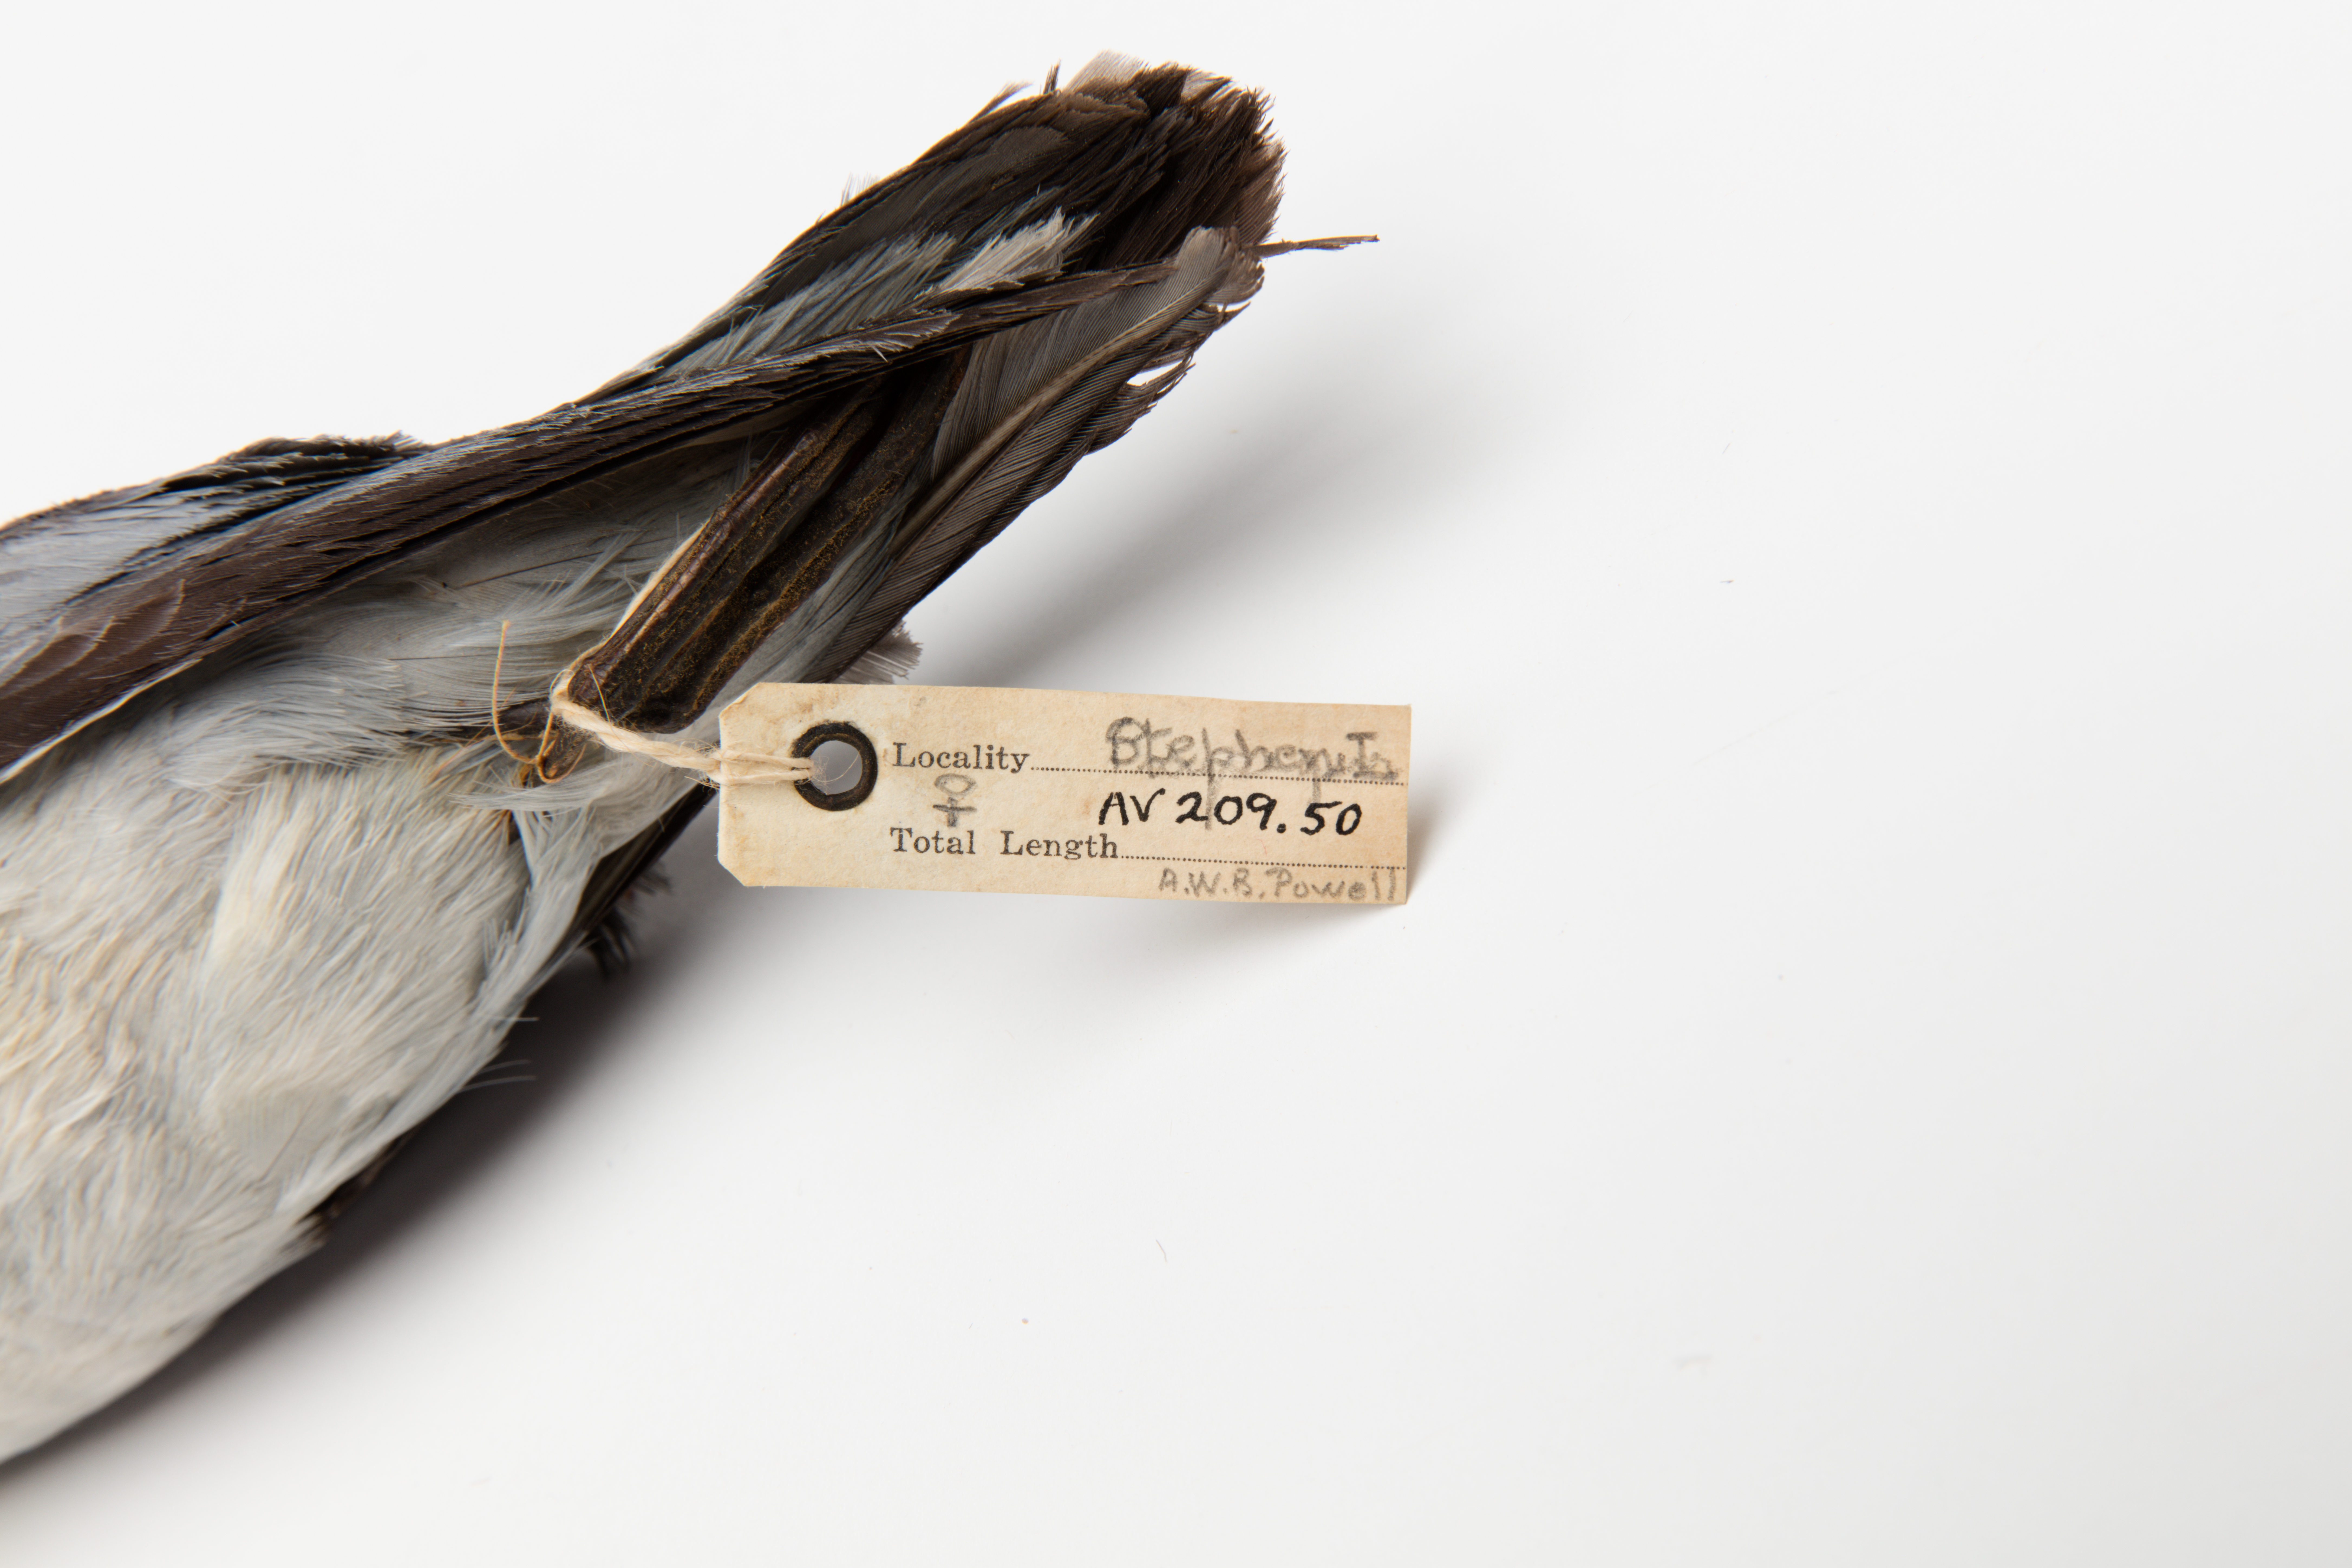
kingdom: Animalia
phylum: Chordata
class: Aves
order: Procellariiformes
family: Procellariidae
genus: Pachyptila
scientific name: Pachyptila turtur
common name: Fairy prion
